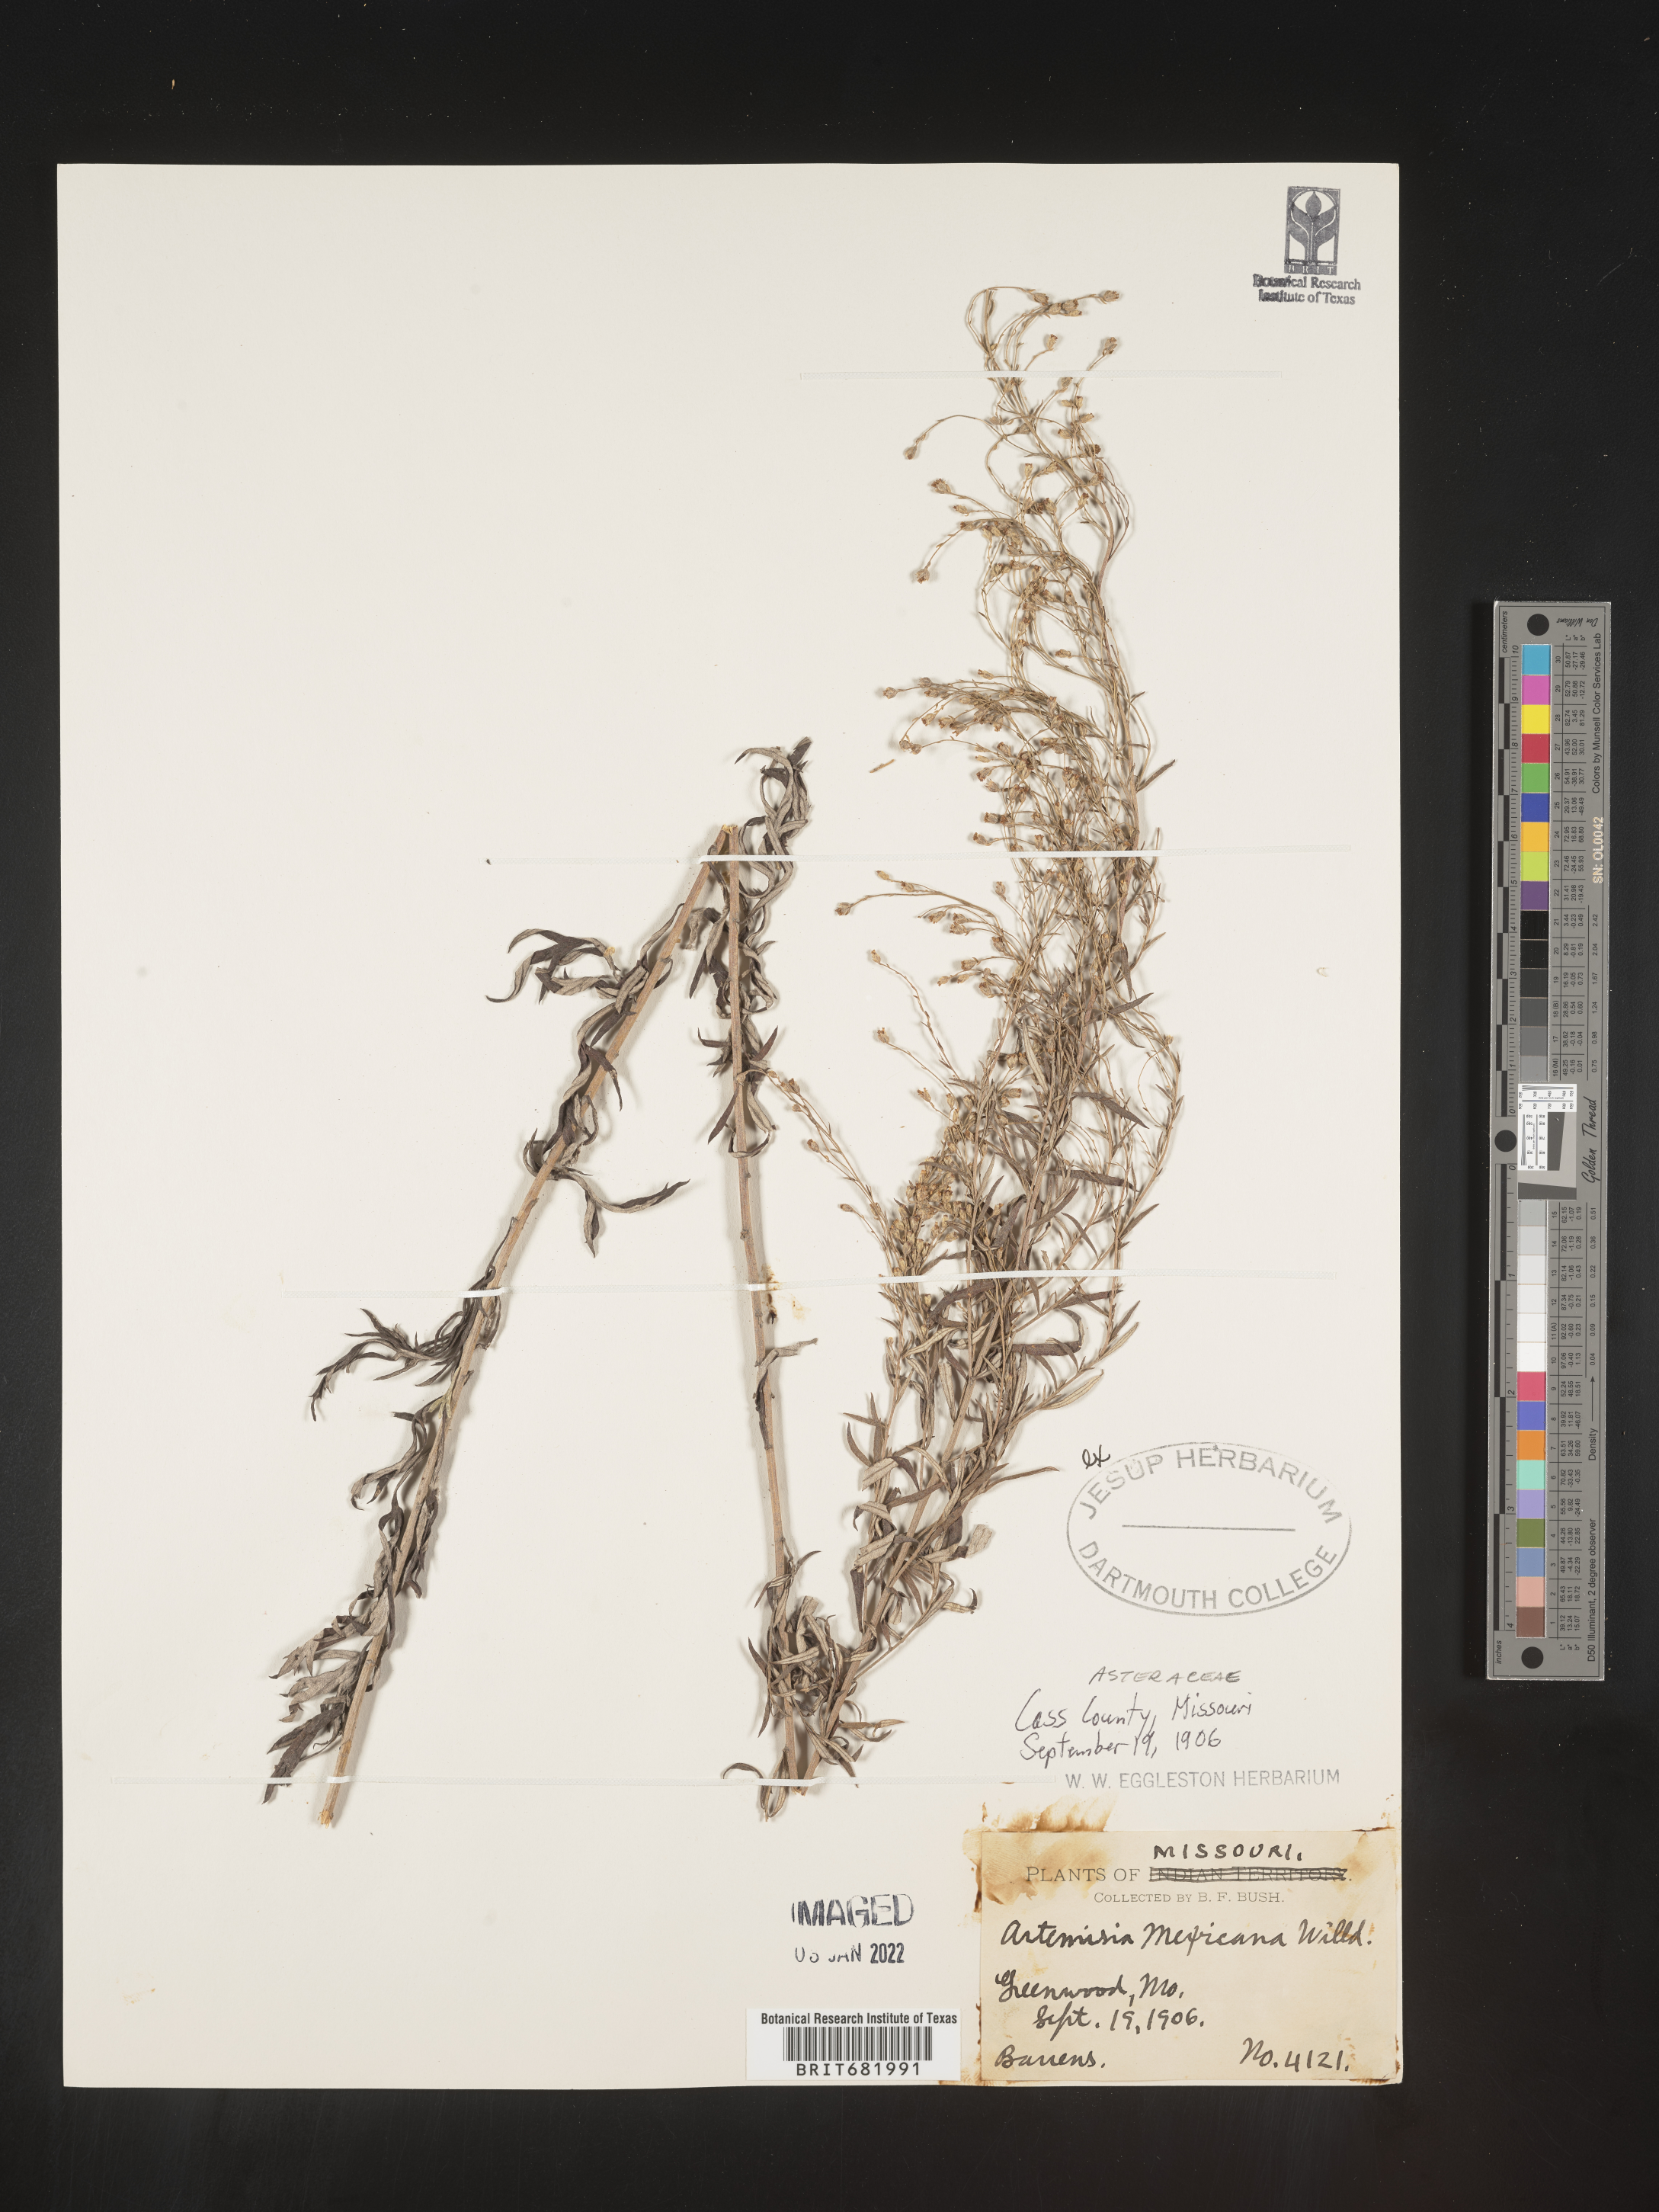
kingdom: Plantae
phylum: Tracheophyta
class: Magnoliopsida
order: Asterales
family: Asteraceae
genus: Artemisia
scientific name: Artemisia ludoviciana
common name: Western mugwort
